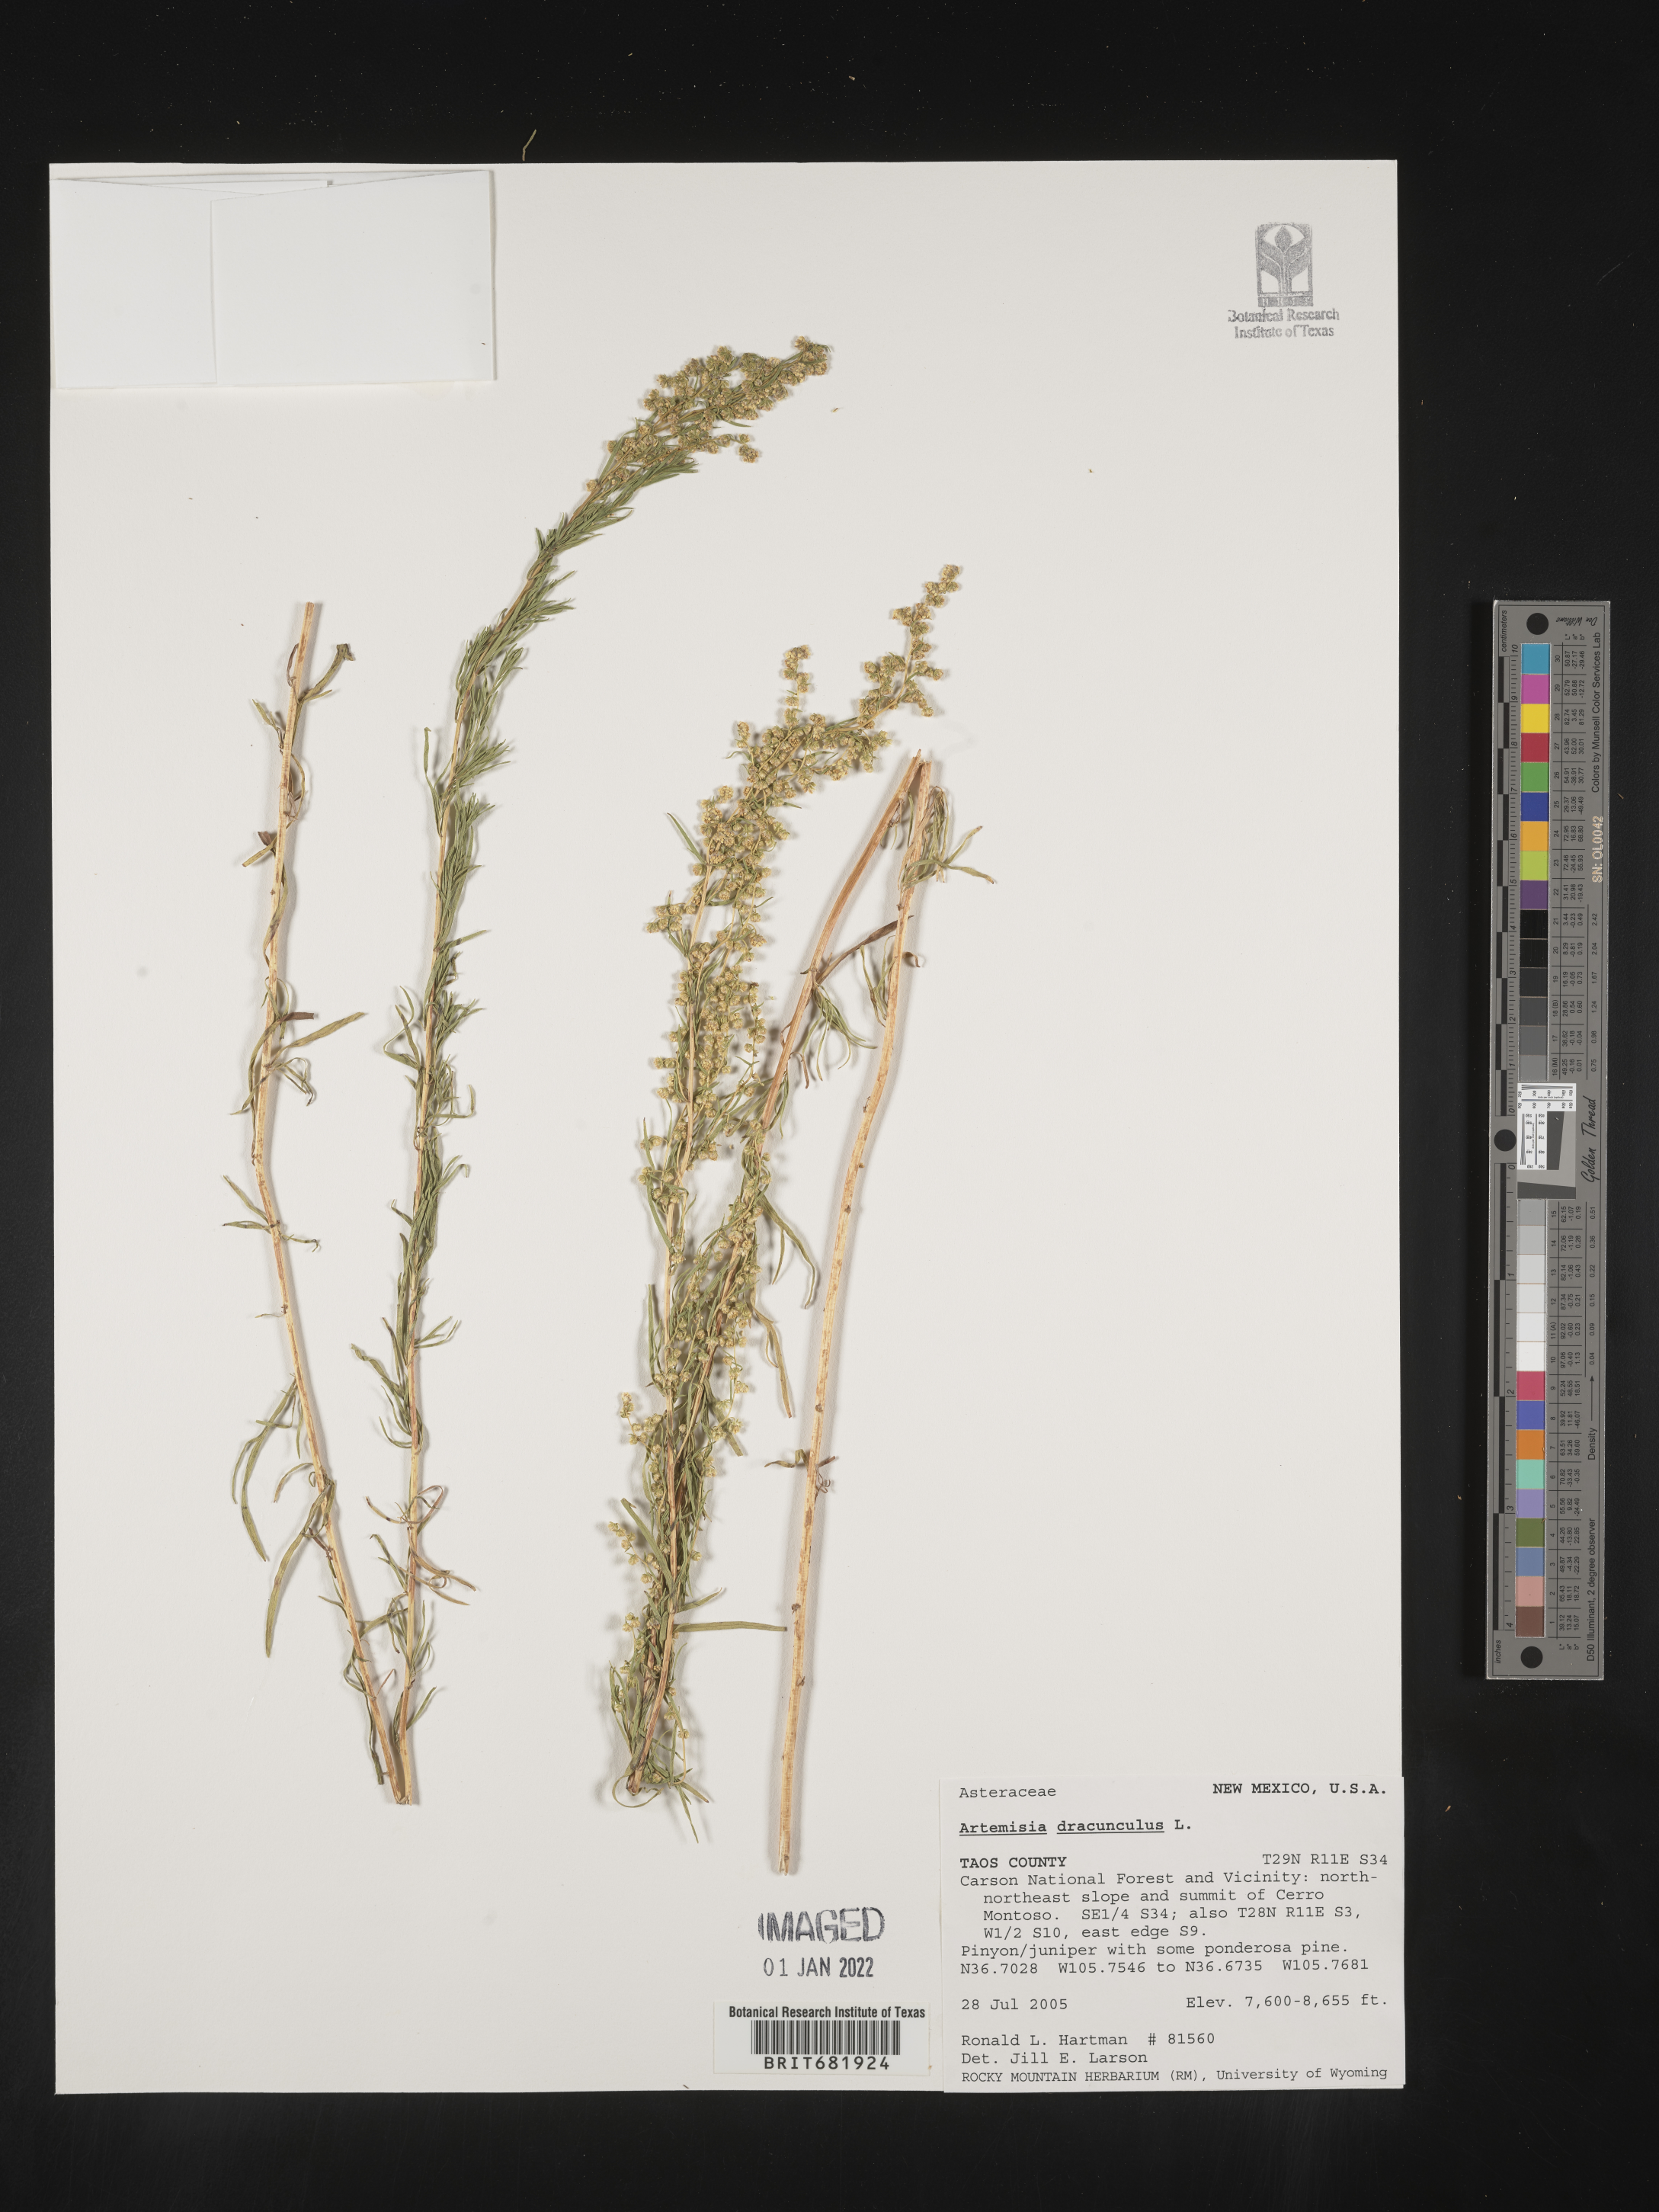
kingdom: Plantae
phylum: Tracheophyta
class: Magnoliopsida
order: Asterales
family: Asteraceae
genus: Artemisia
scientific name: Artemisia dracunculus
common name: Tarragon
